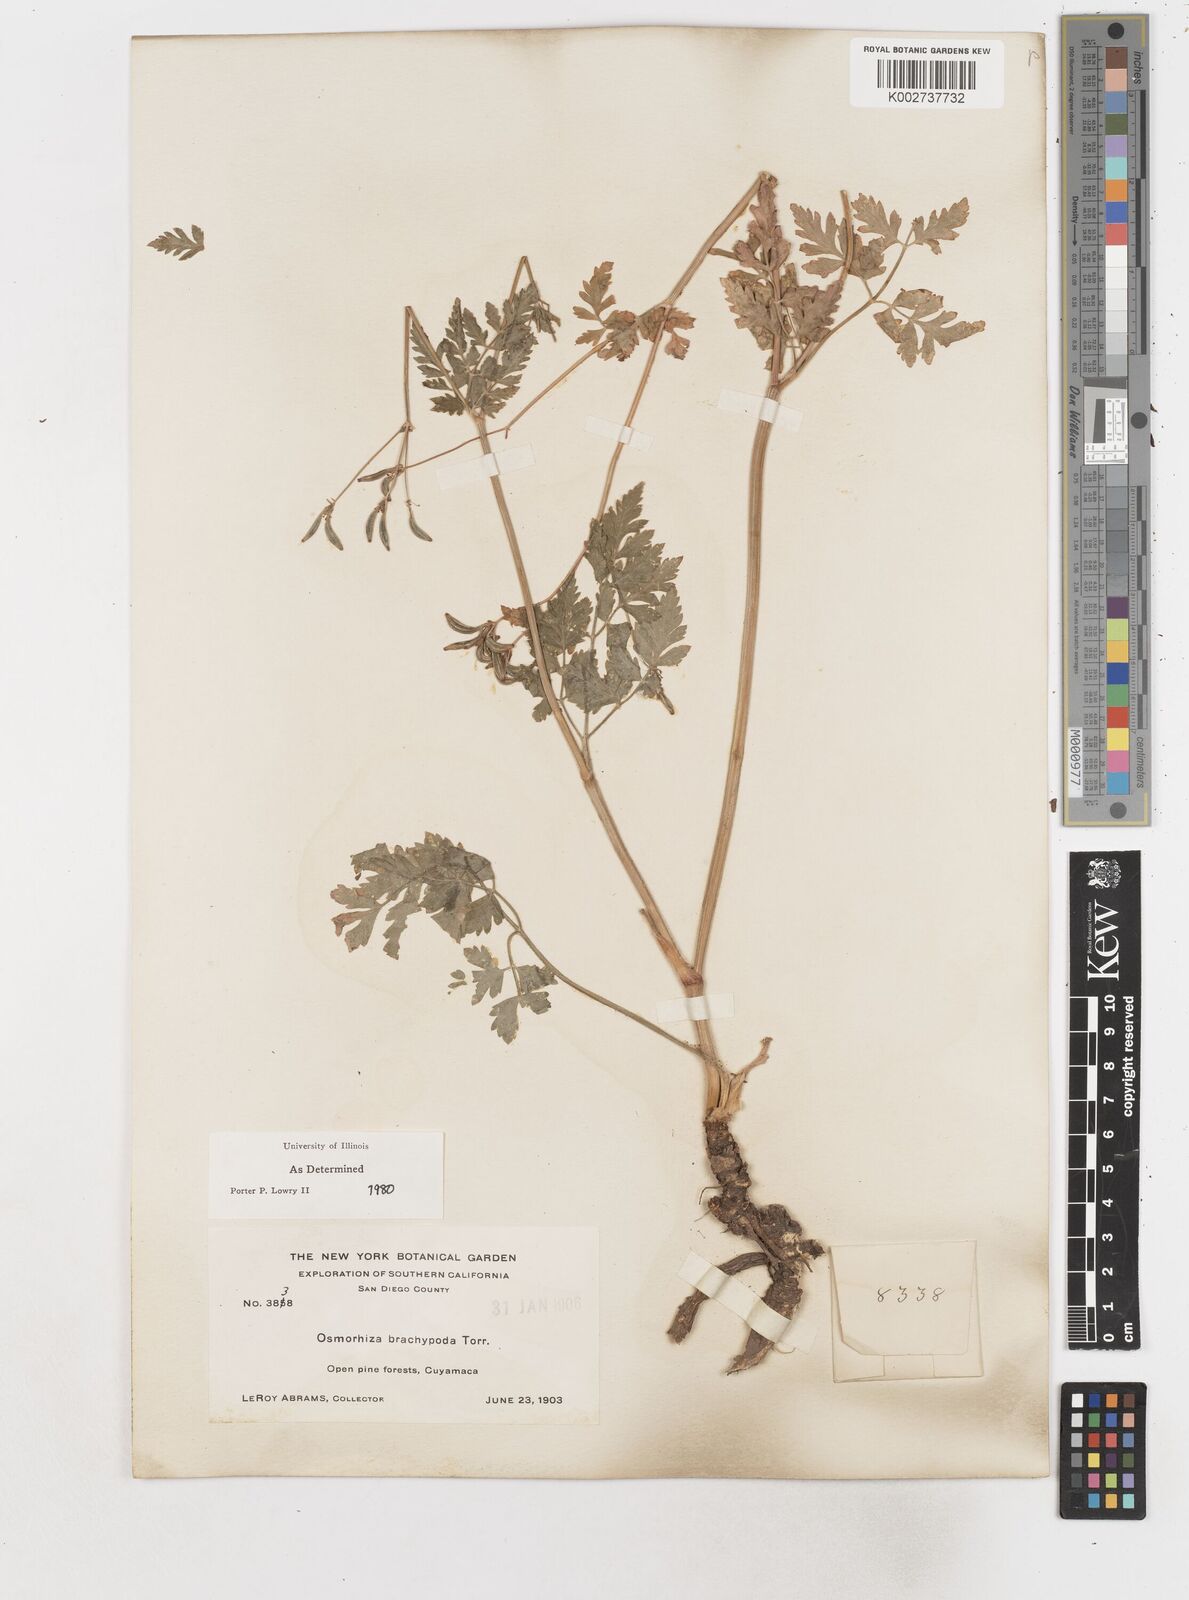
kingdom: Plantae
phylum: Tracheophyta
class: Magnoliopsida
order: Apiales
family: Apiaceae
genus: Osmorhiza
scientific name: Osmorhiza brachypoda
